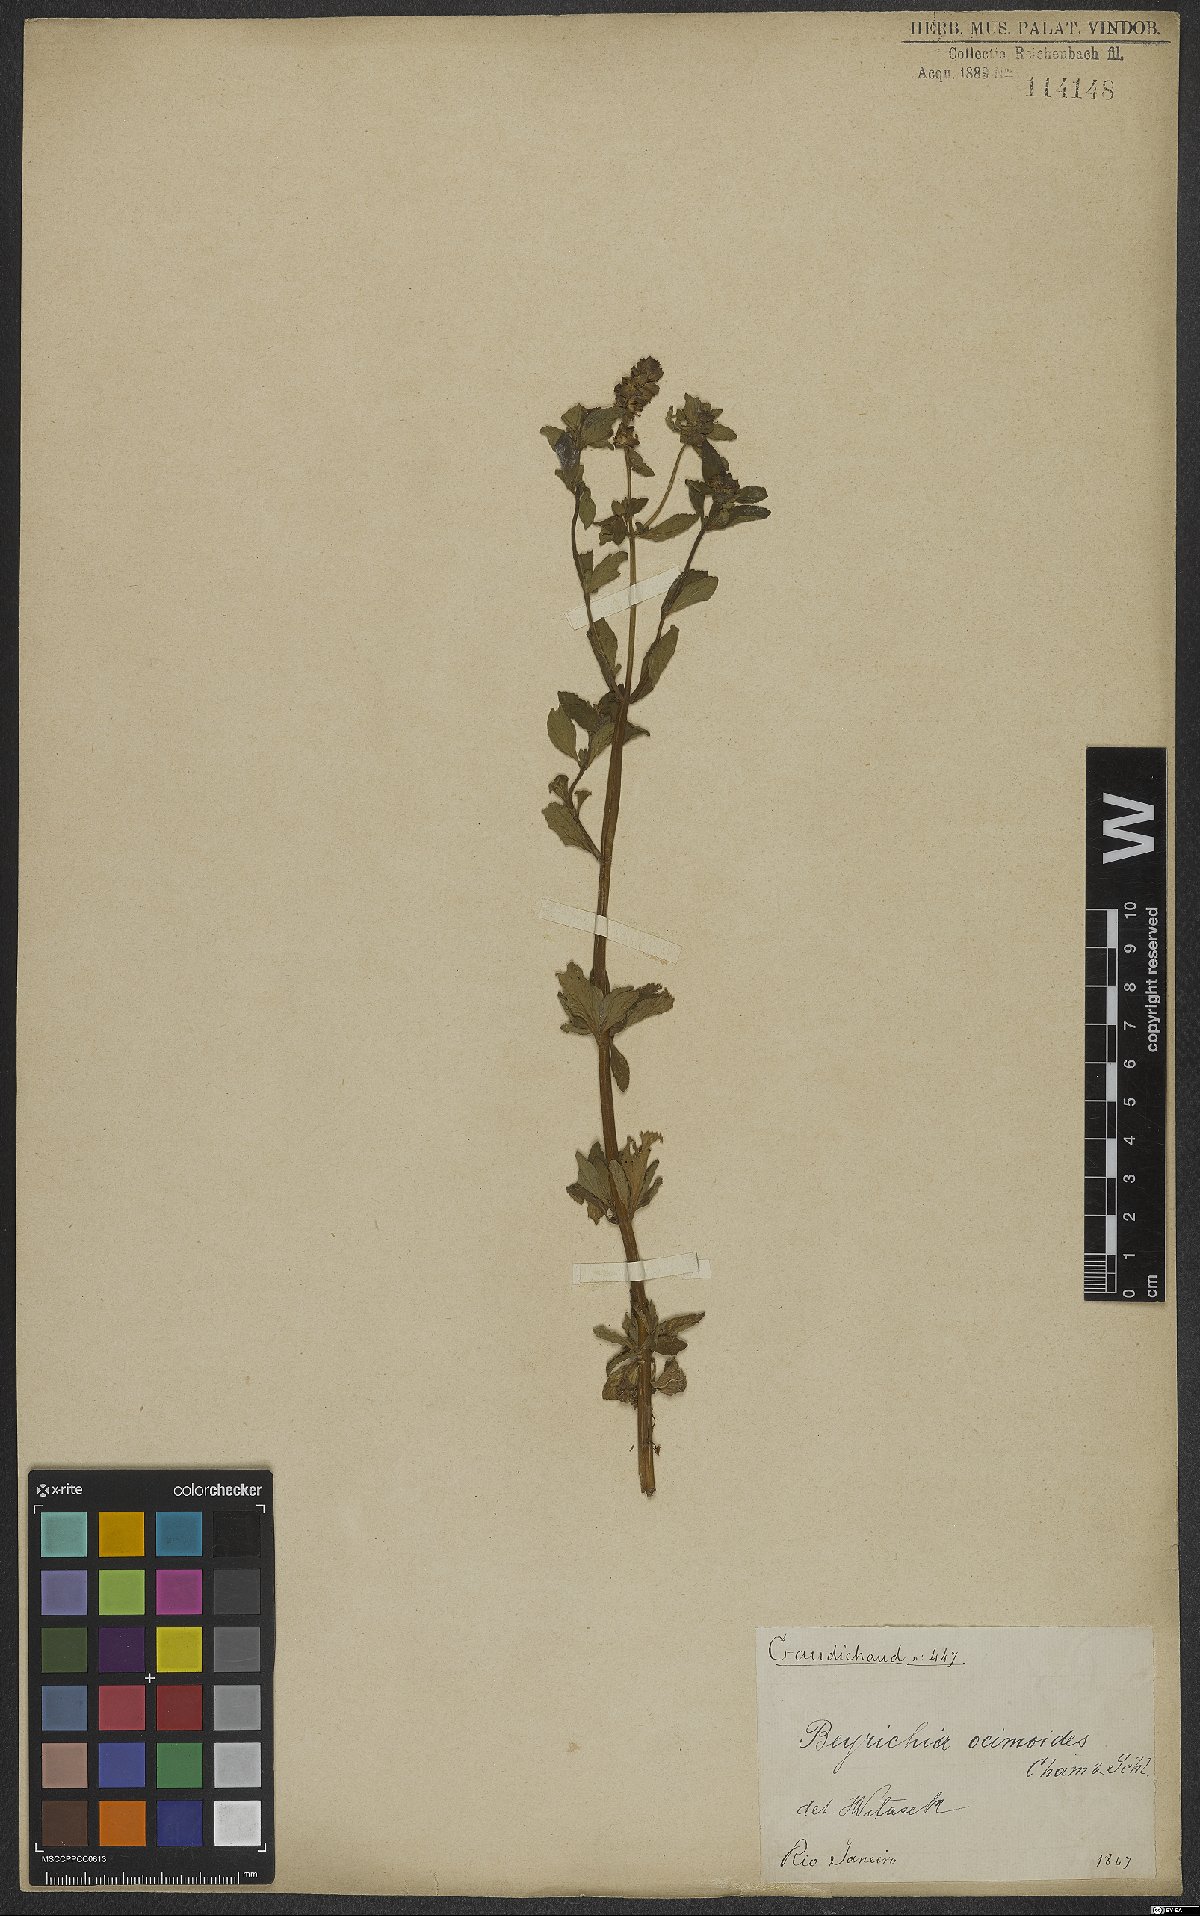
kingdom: Plantae
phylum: Tracheophyta
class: Magnoliopsida
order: Lamiales
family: Plantaginaceae
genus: Matourea
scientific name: Matourea ocymoides
